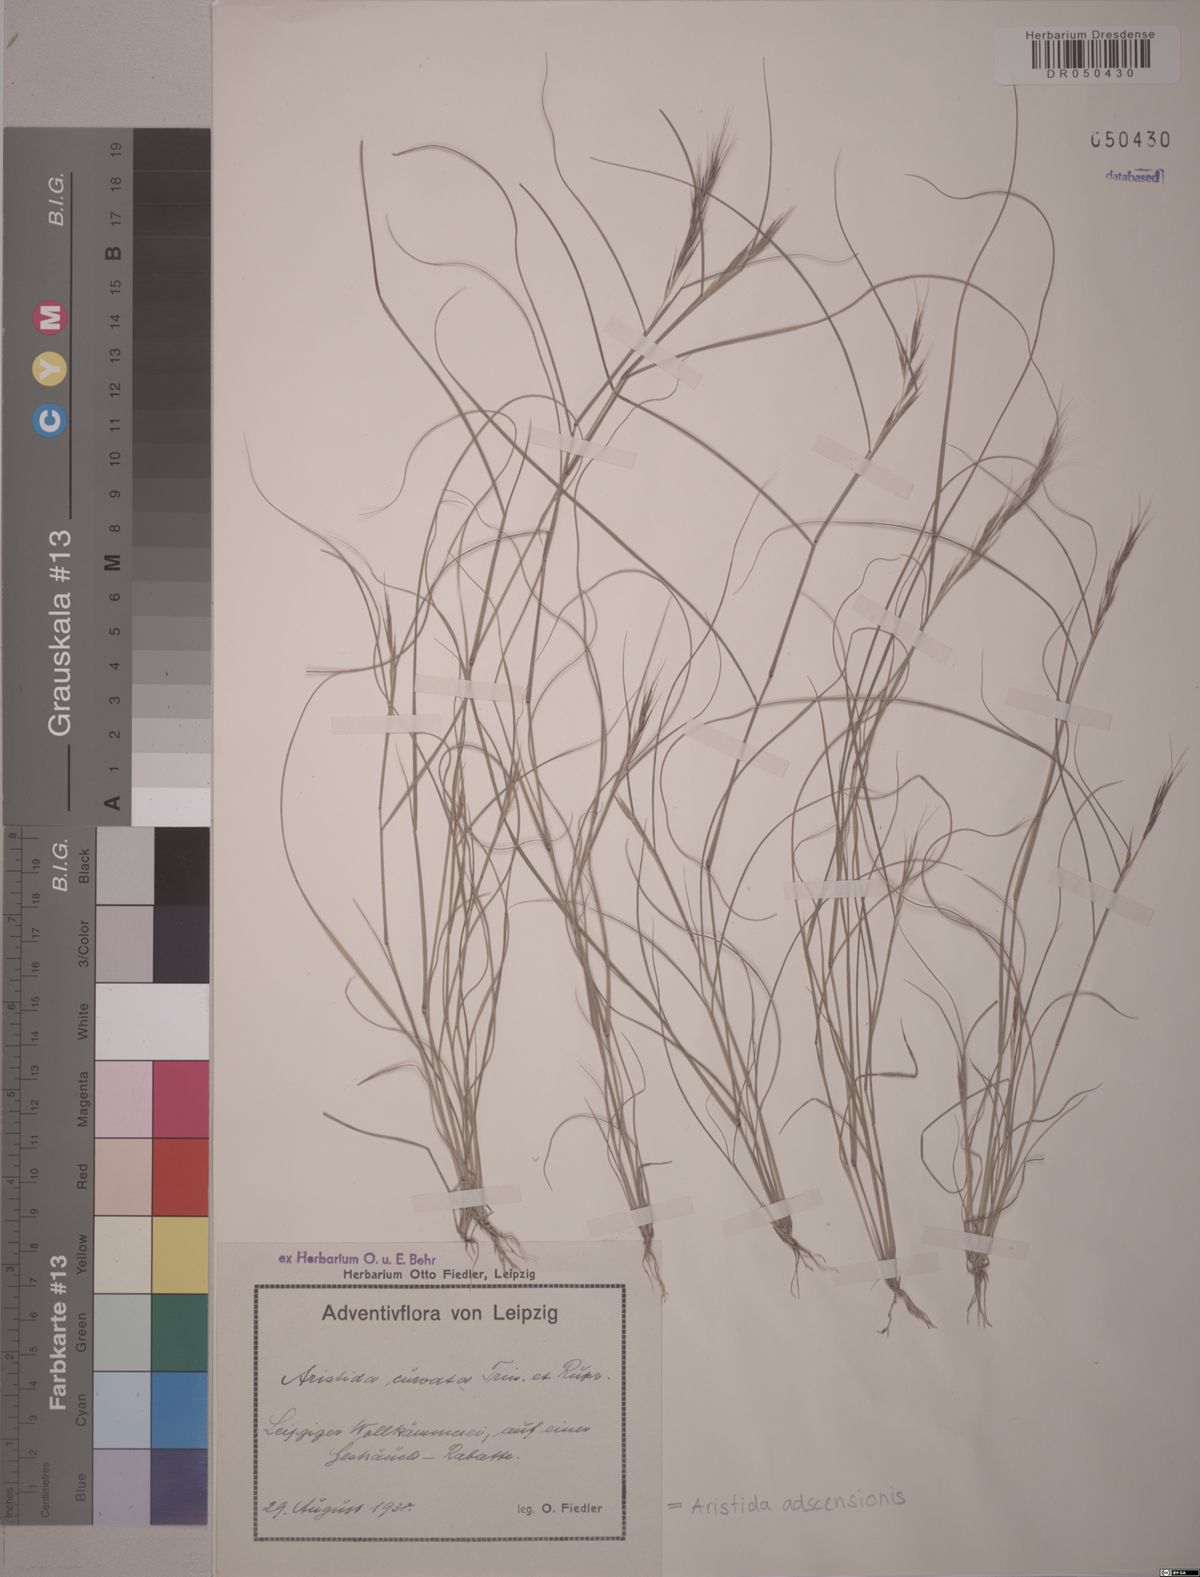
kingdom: Plantae
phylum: Tracheophyta
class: Liliopsida
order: Poales
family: Poaceae
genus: Aristida
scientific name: Aristida adscensionis
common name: Sixweeks threeawn
